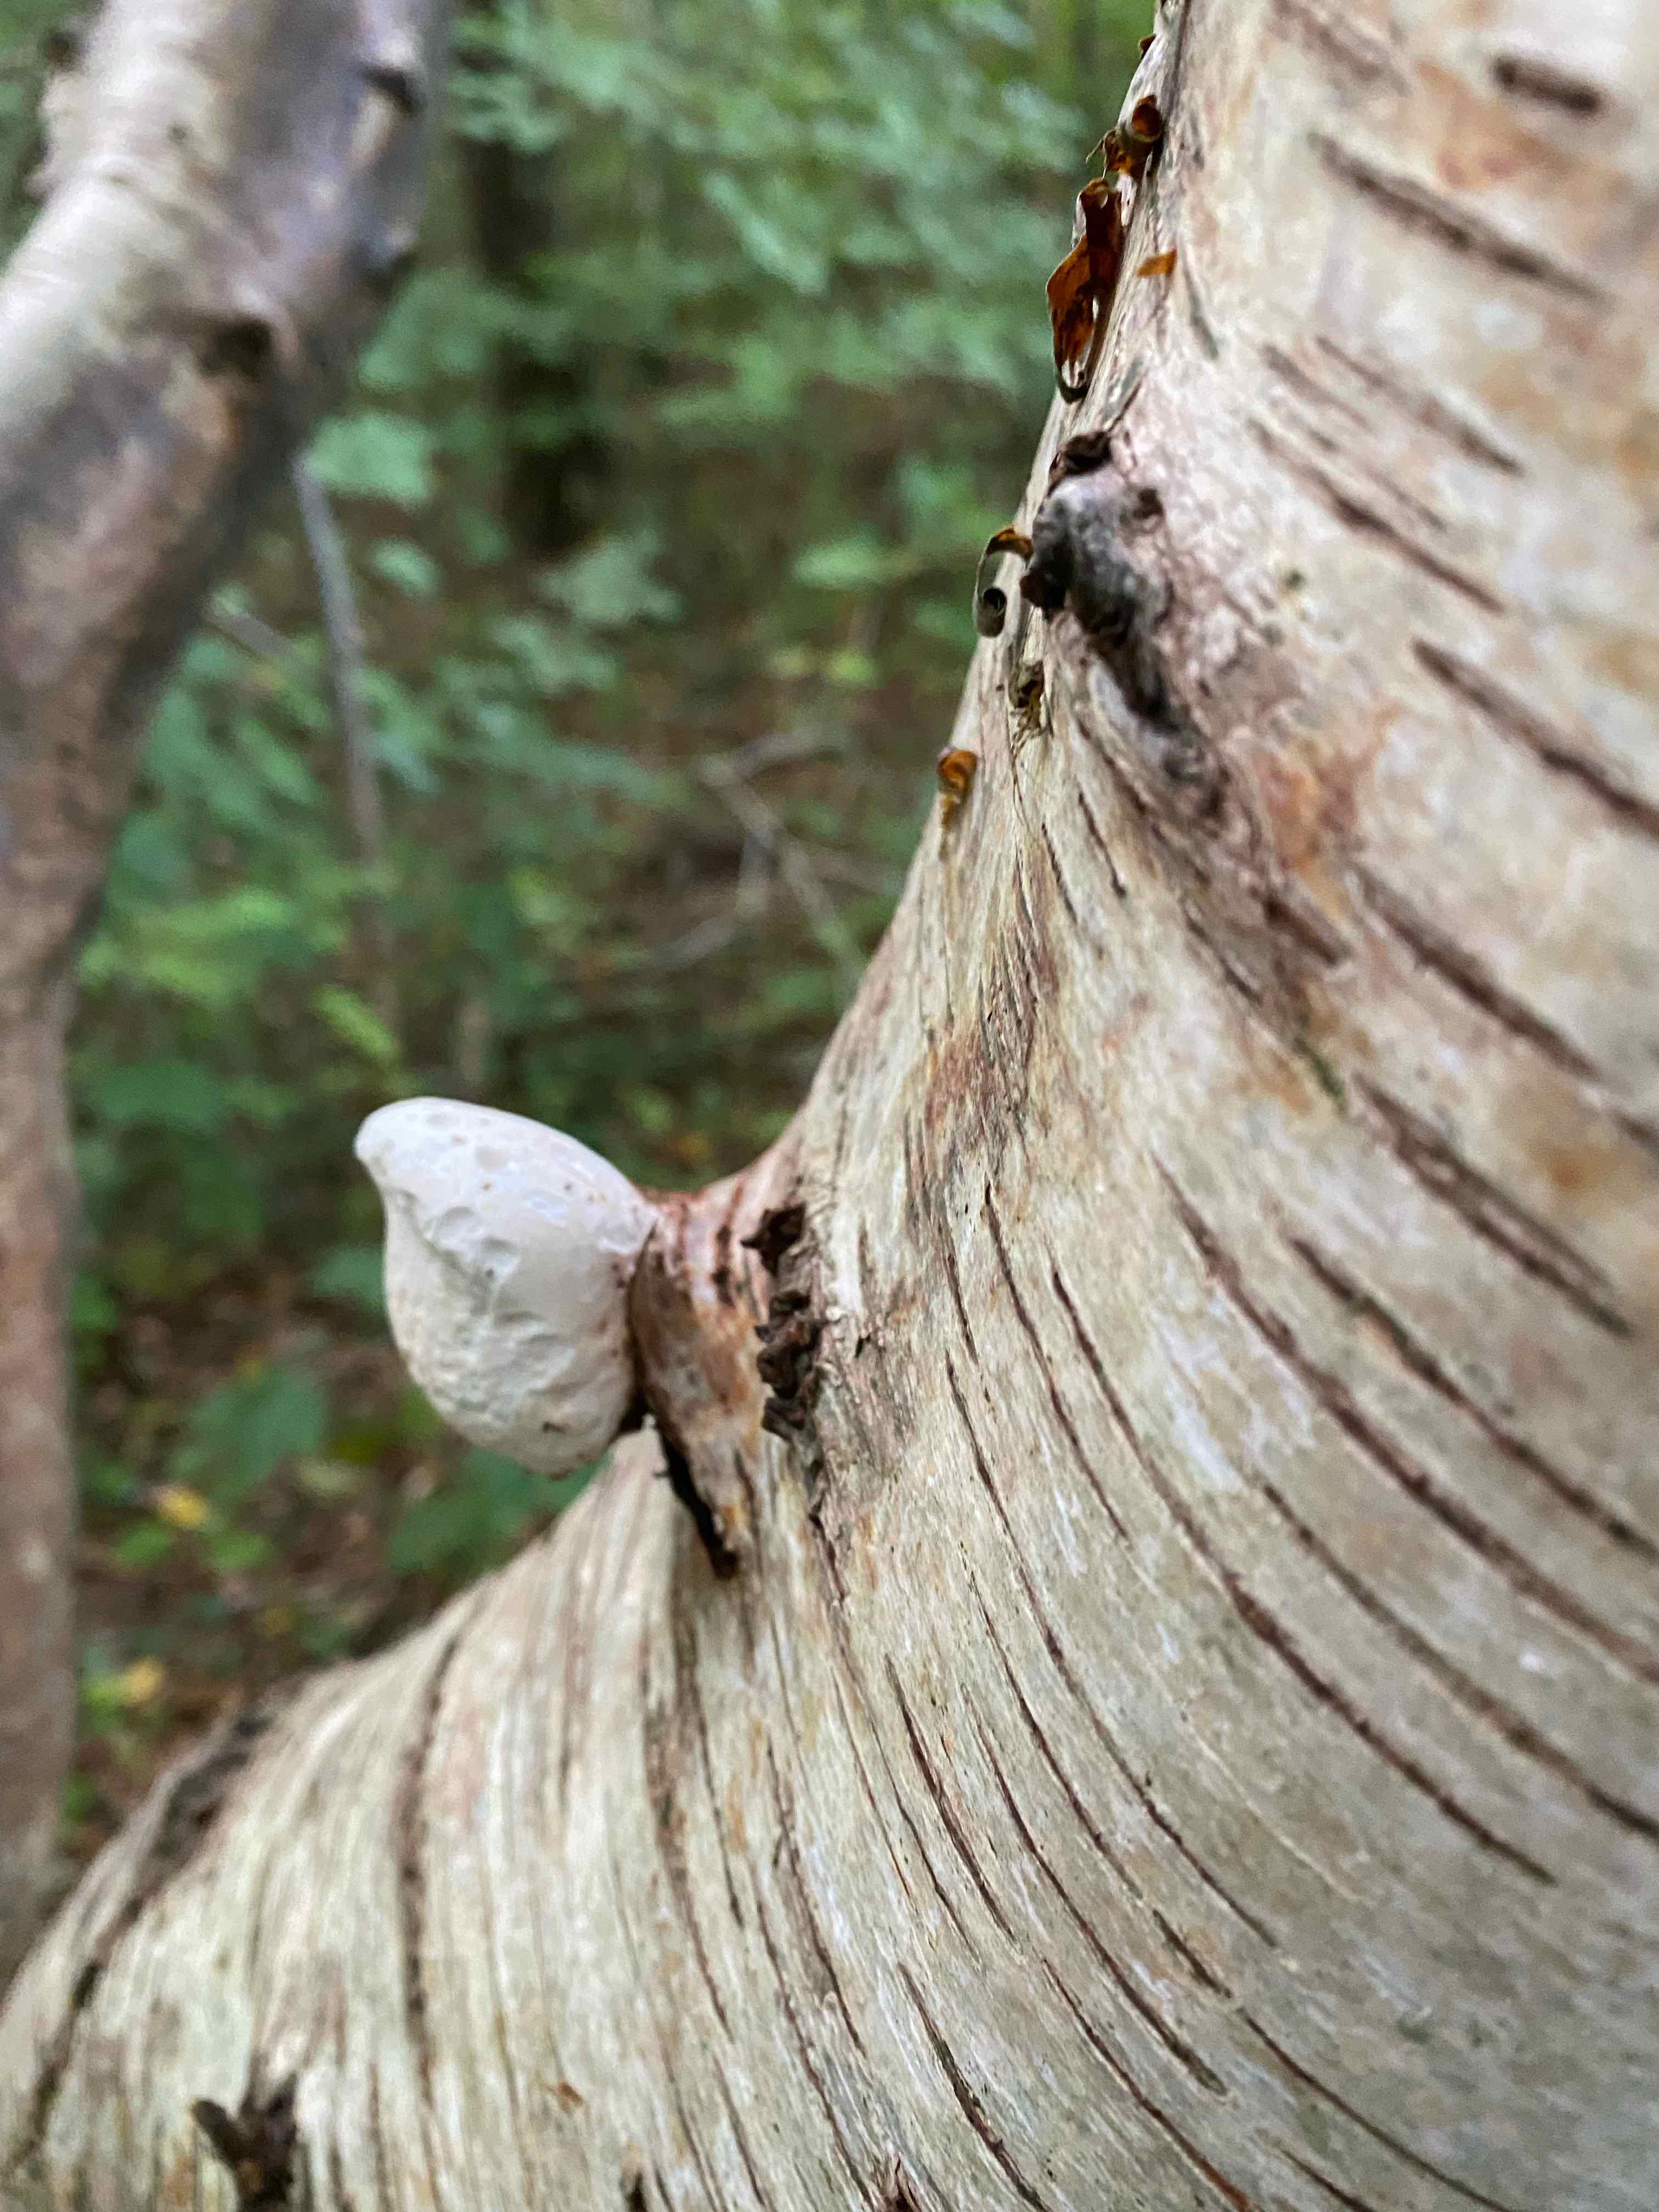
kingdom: Fungi
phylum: Basidiomycota
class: Agaricomycetes
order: Polyporales
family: Fomitopsidaceae
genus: Fomitopsis
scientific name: Fomitopsis betulina
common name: birkeporesvamp
